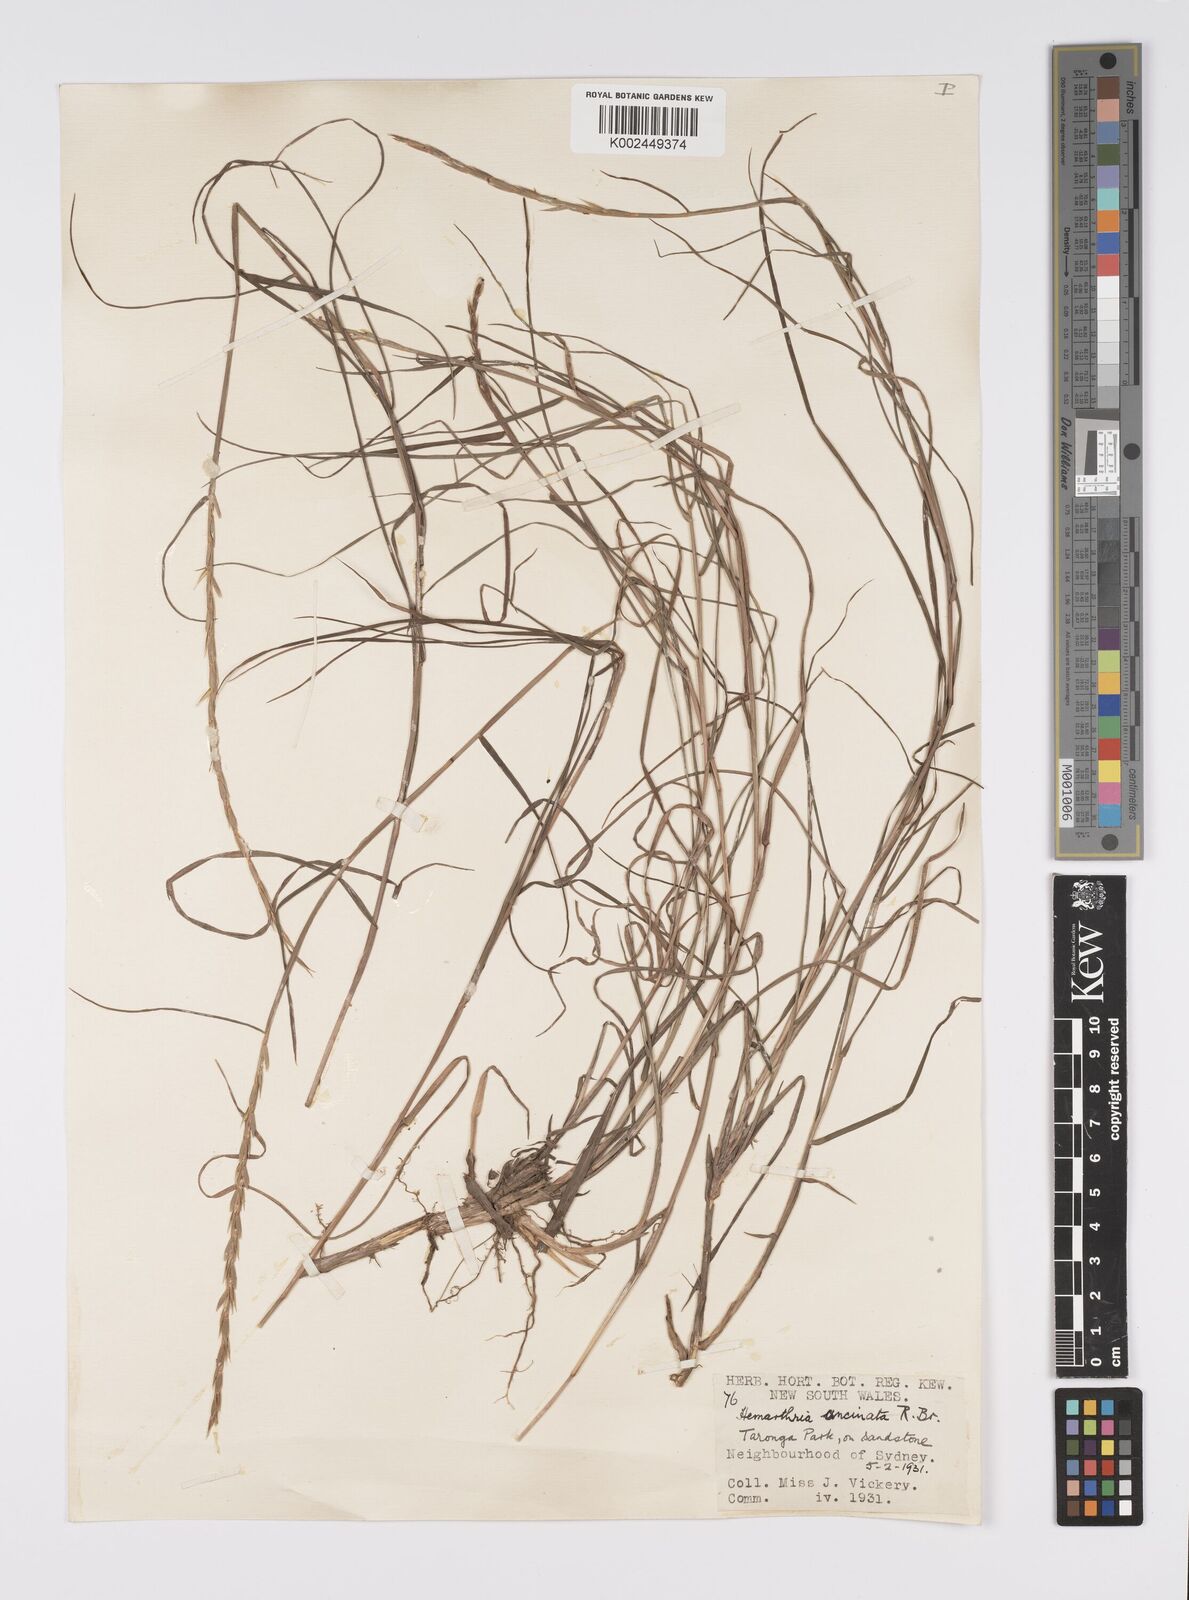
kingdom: Plantae
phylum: Tracheophyta
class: Liliopsida
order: Poales
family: Poaceae
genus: Hemarthria
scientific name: Hemarthria uncinata
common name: Matgrass
